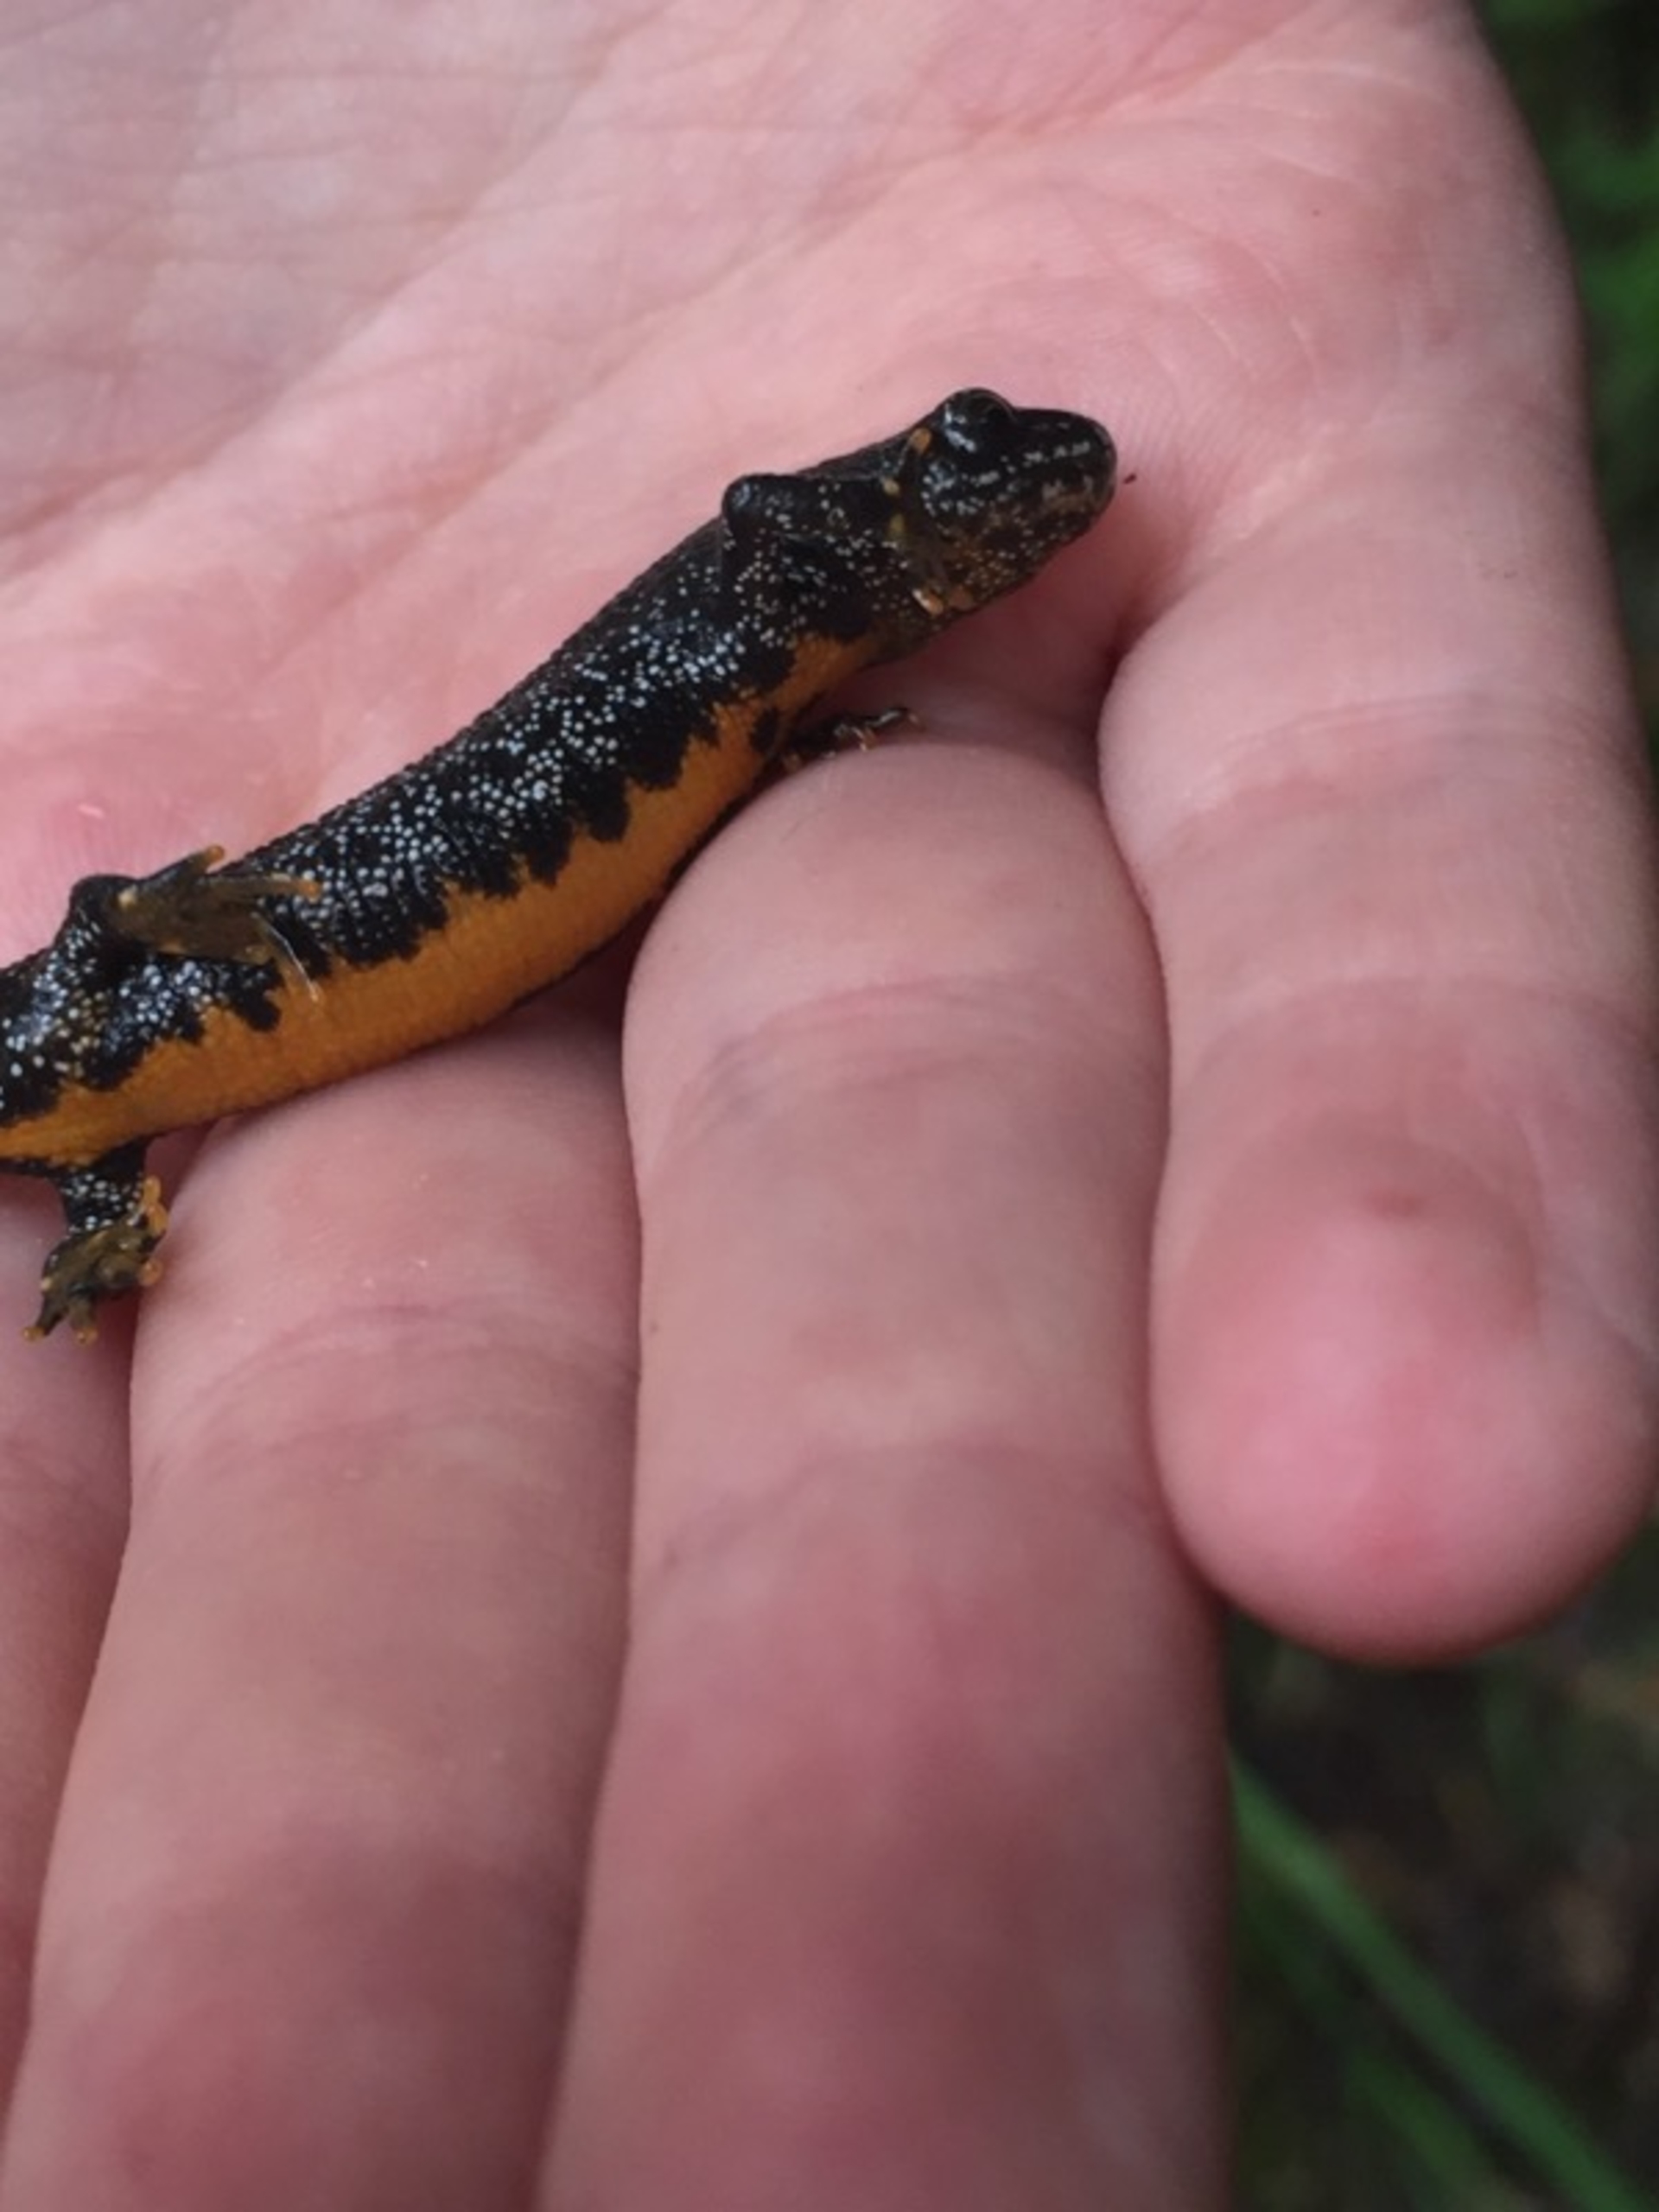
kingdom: Animalia
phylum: Chordata
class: Amphibia
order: Caudata
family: Salamandridae
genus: Triturus
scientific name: Triturus cristatus
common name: Stor vandsalamander
